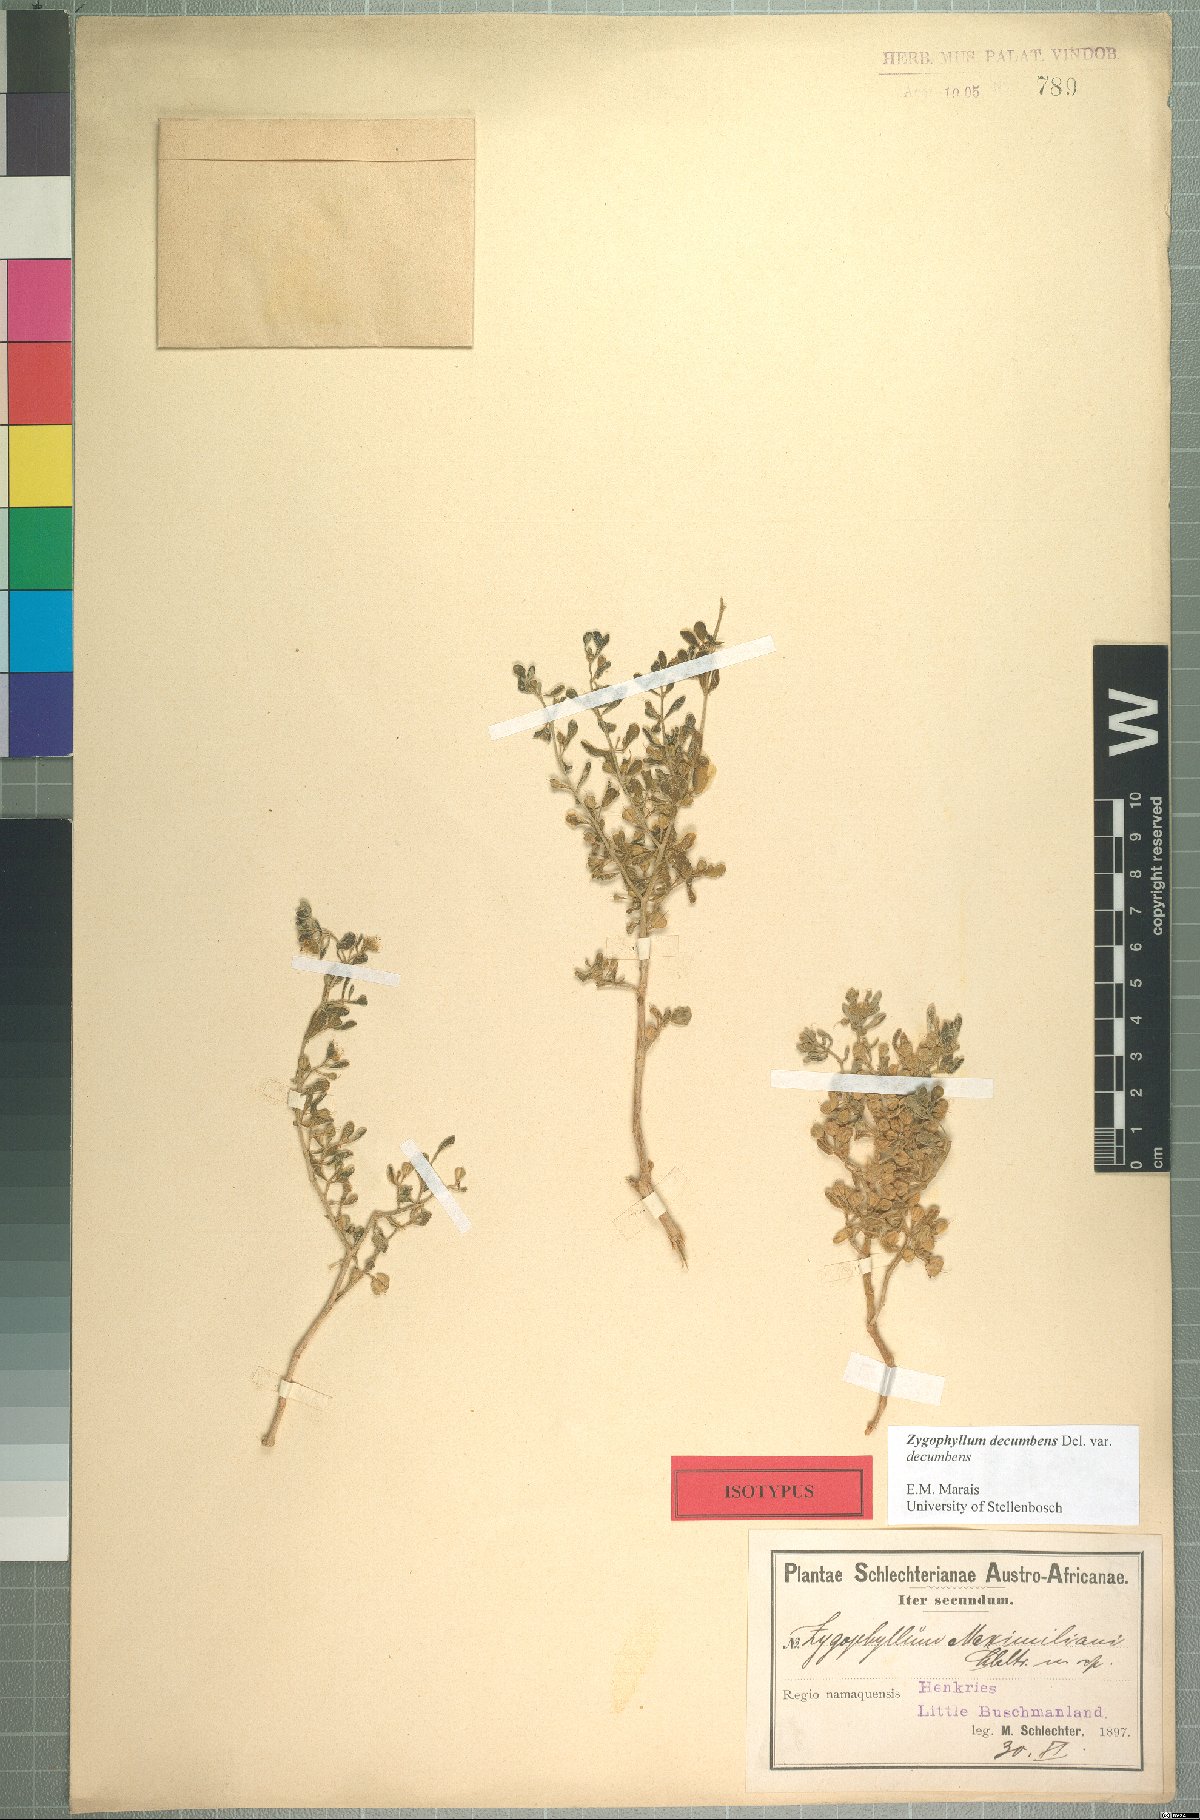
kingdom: Plantae
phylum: Tracheophyta
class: Magnoliopsida
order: Zygophyllales
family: Zygophyllaceae
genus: Zygophyllum
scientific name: Zygophyllum maximiliani
